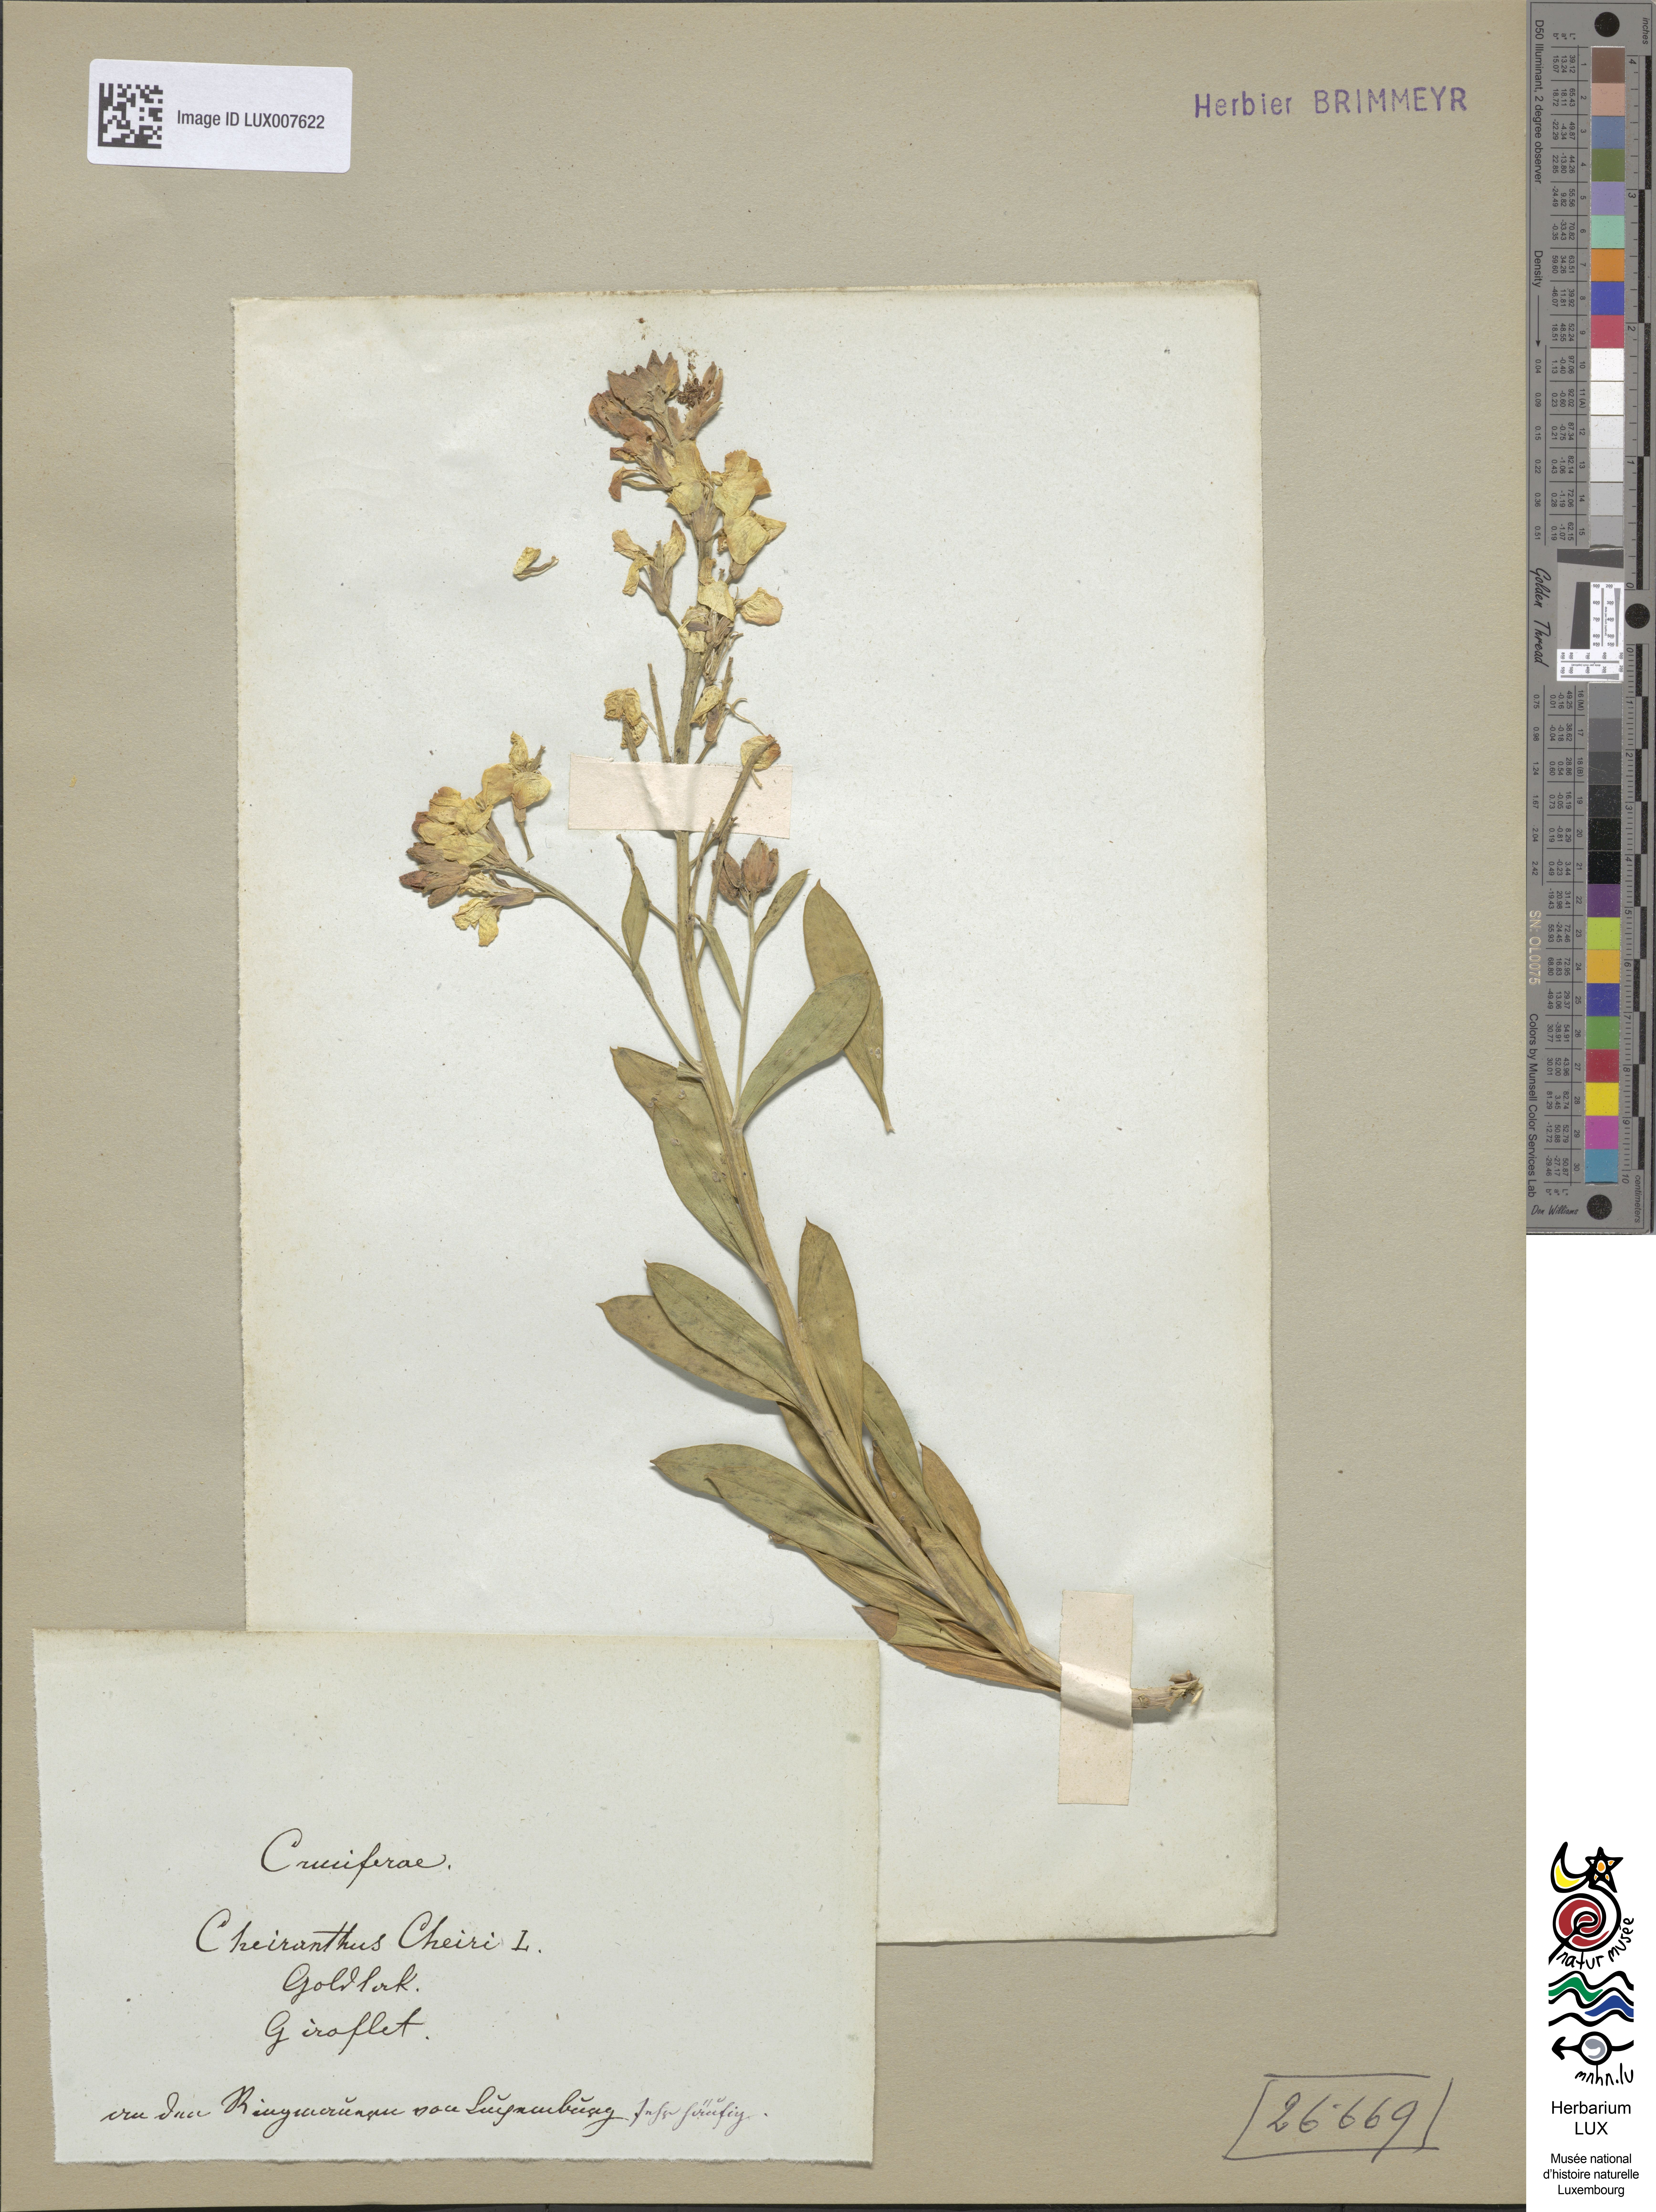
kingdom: Plantae
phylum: Tracheophyta
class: Magnoliopsida
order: Brassicales
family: Brassicaceae
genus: Erysimum
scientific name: Erysimum cheiri
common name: Wallflower
